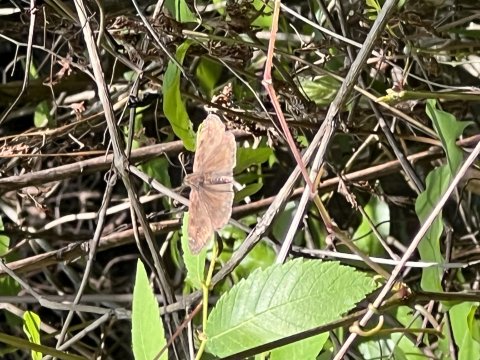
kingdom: Animalia
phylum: Arthropoda
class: Insecta
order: Lepidoptera
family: Hesperiidae
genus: Gesta
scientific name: Gesta
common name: Horace's Duskywing
